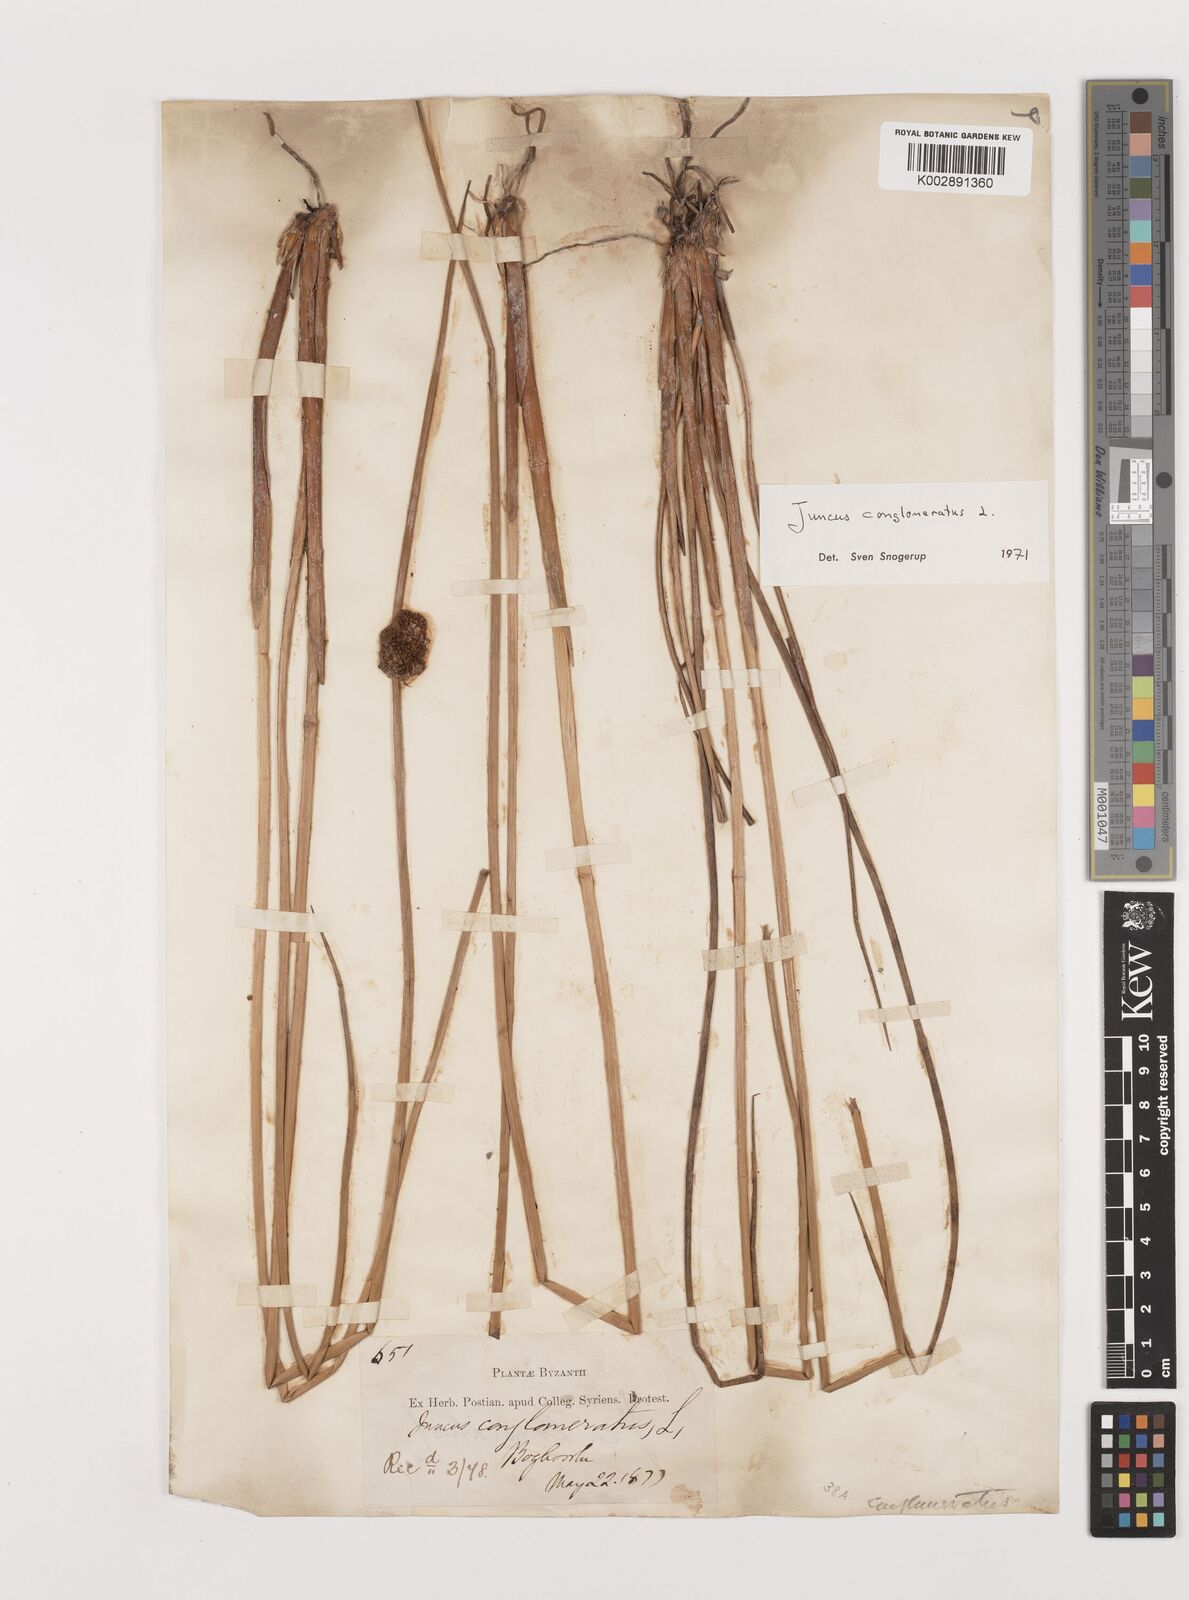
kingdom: Plantae
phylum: Tracheophyta
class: Liliopsida
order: Poales
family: Juncaceae
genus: Juncus
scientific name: Juncus conglomeratus
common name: Compact rush
